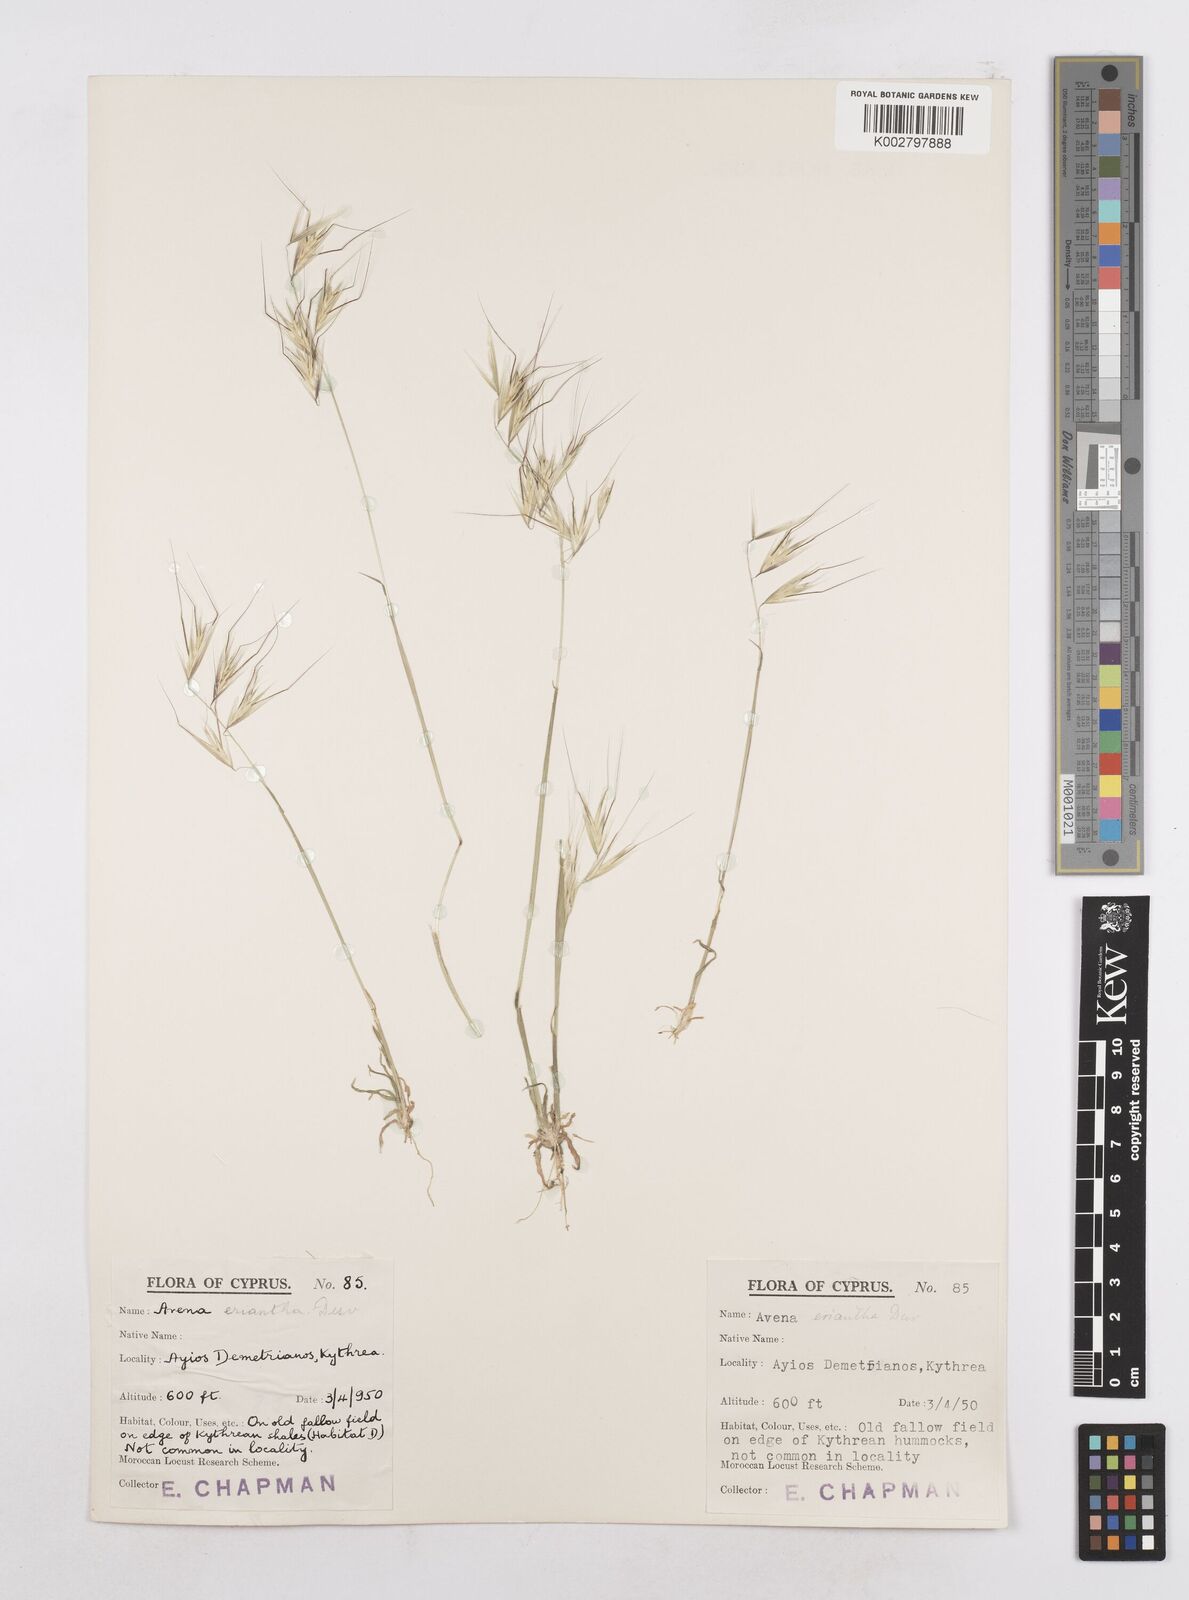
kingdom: Plantae
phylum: Tracheophyta
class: Liliopsida
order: Poales
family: Poaceae
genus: Avena
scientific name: Avena eriantha
